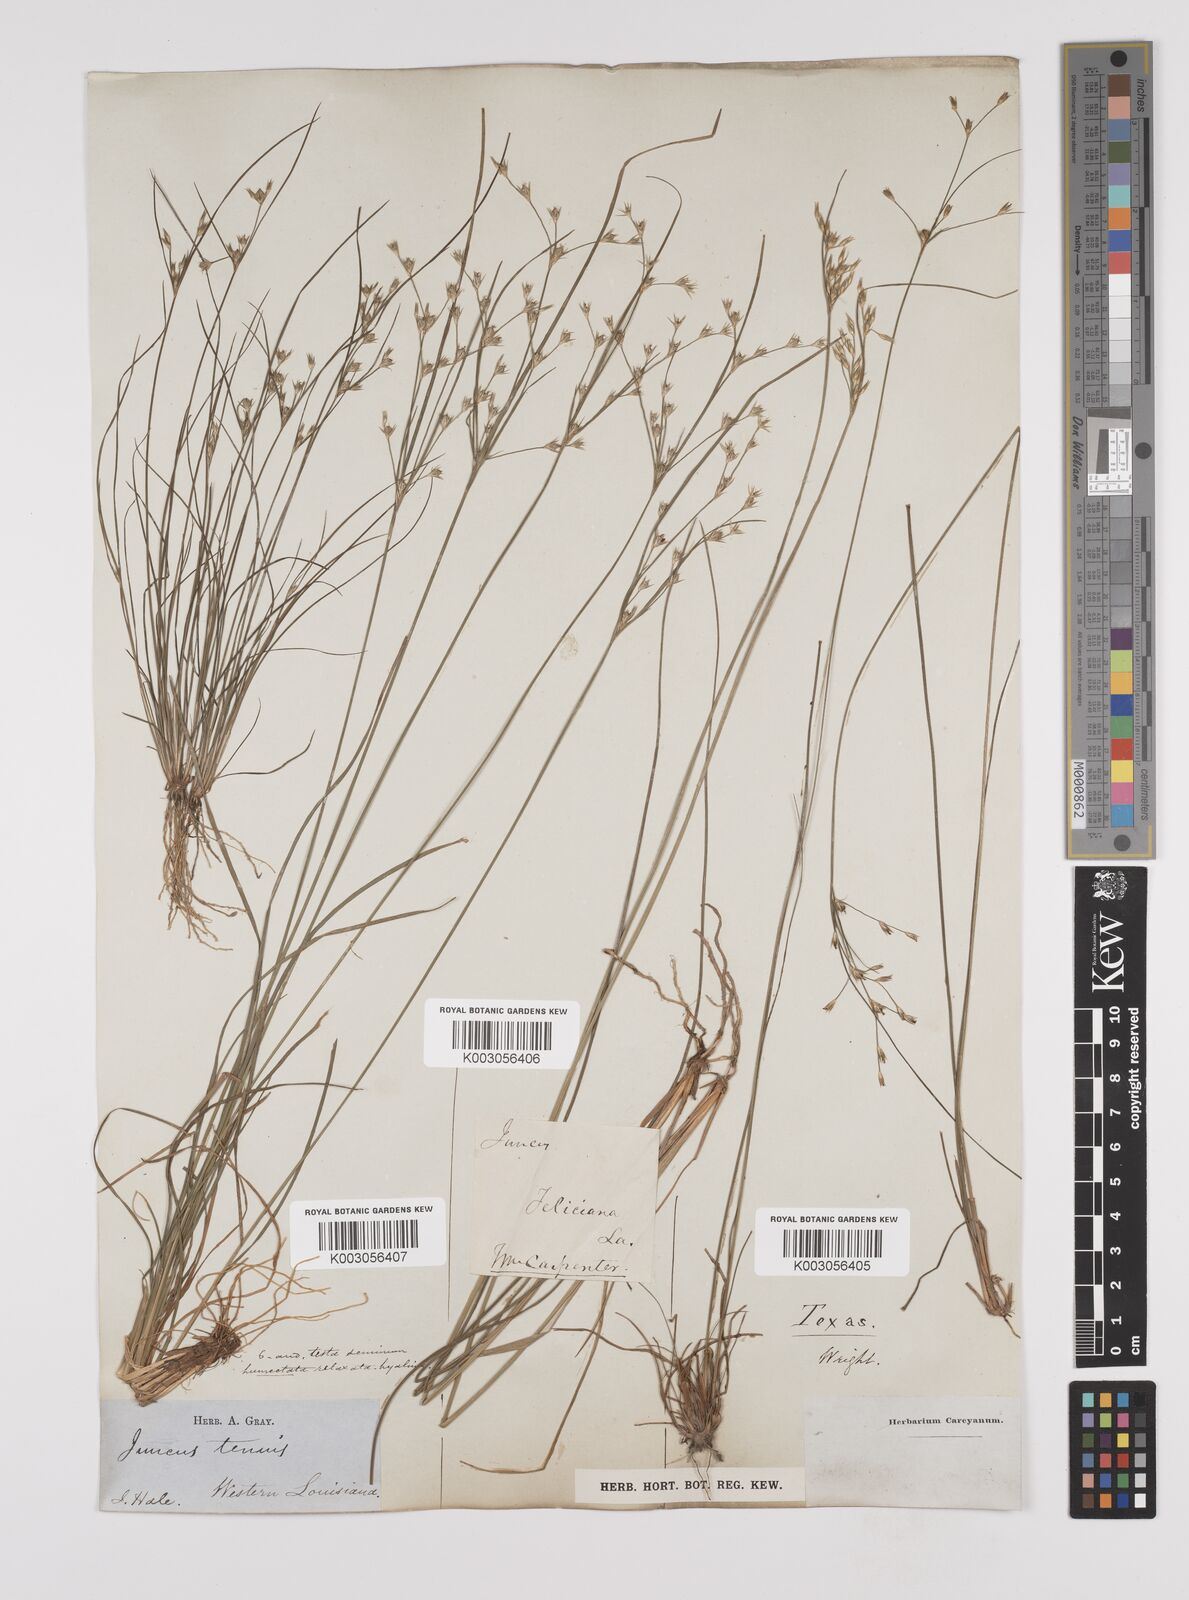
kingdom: Plantae
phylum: Tracheophyta
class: Liliopsida
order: Poales
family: Juncaceae
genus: Juncus
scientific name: Juncus tenuis
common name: Slender rush
